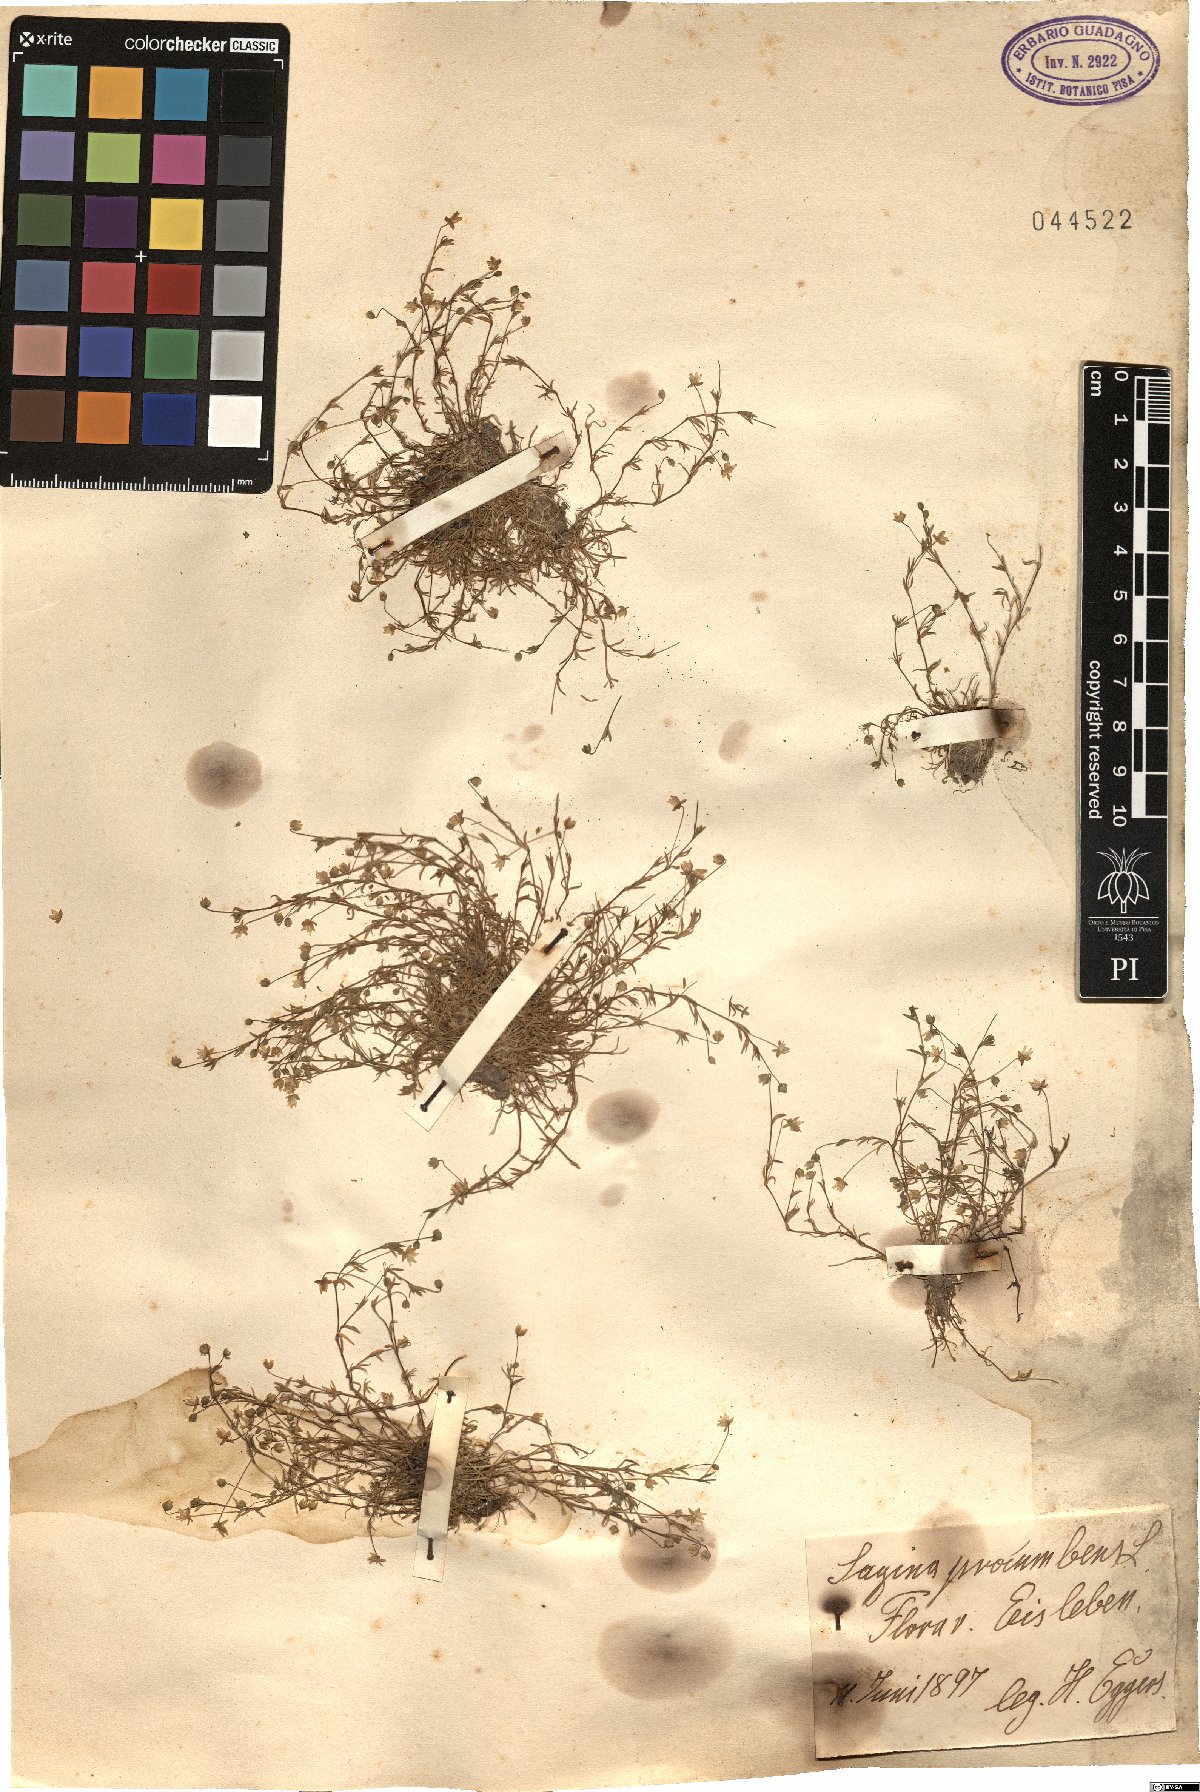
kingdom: Plantae
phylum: Tracheophyta
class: Magnoliopsida
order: Caryophyllales
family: Caryophyllaceae
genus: Sagina
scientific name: Sagina procumbens
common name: Procumbent pearlwort
